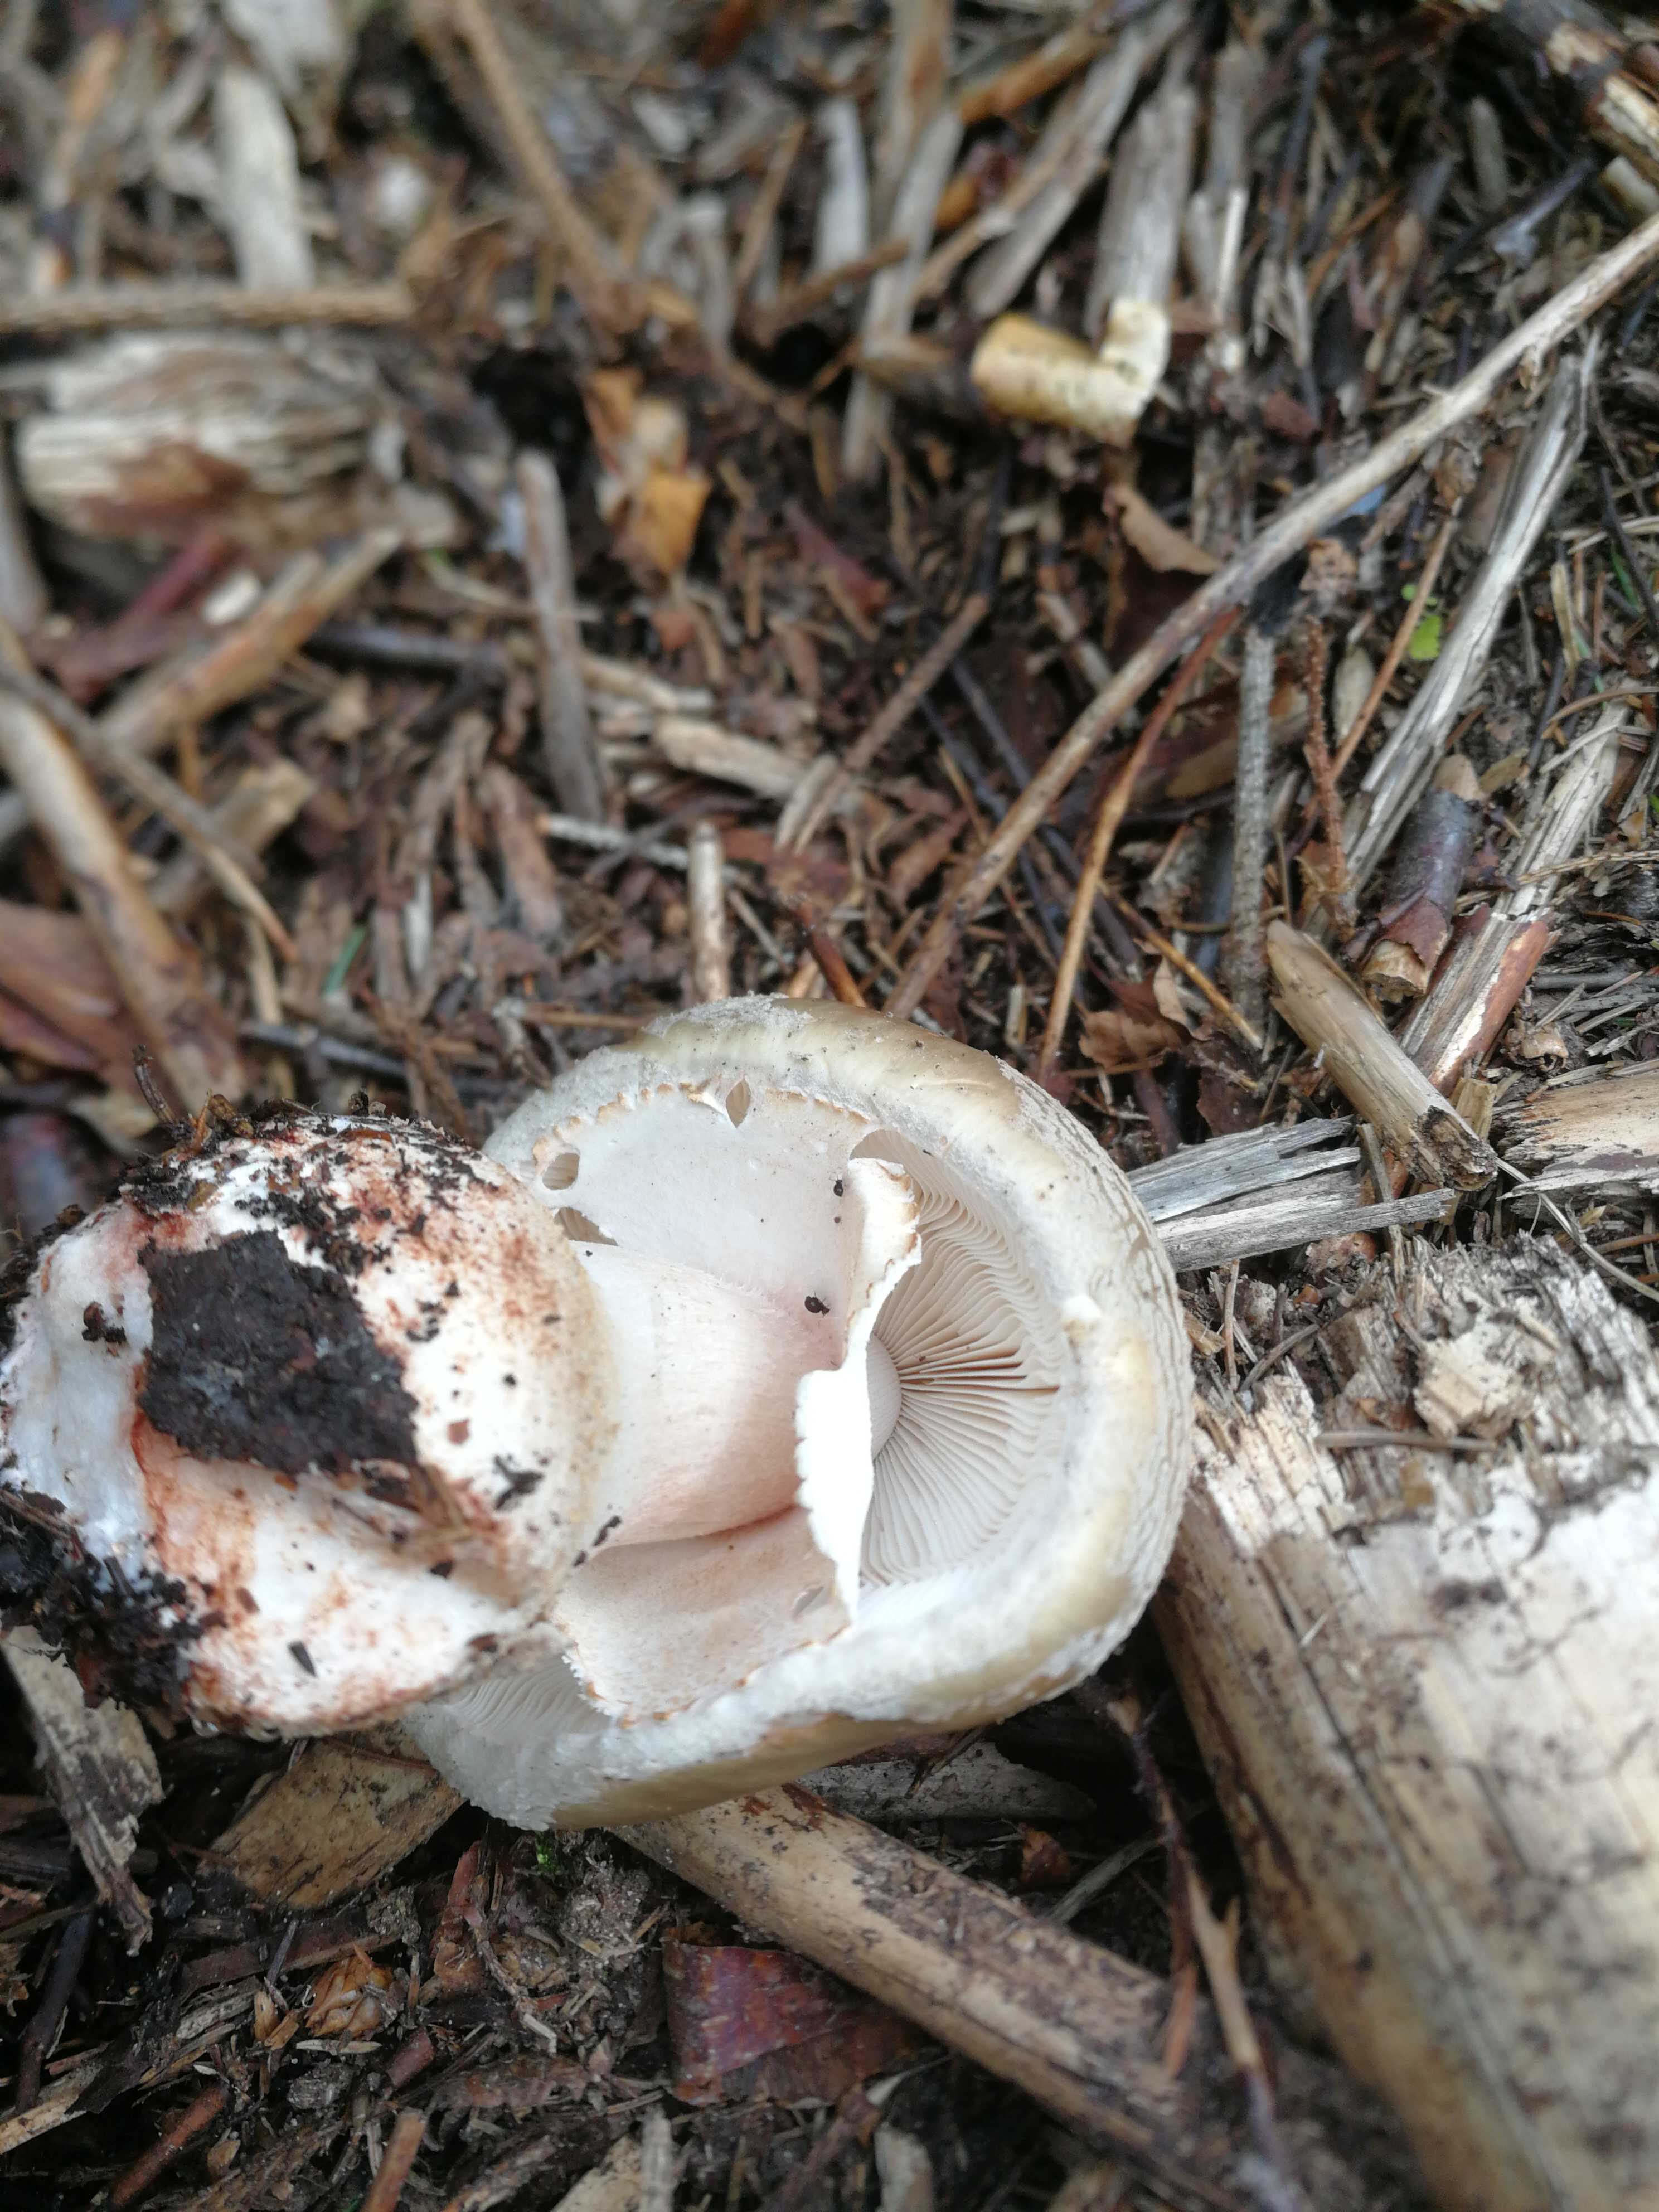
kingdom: Fungi
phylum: Basidiomycota
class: Agaricomycetes
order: Agaricales
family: Amanitaceae
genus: Amanita
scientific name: Amanita rubescens
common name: rødmende fluesvamp
